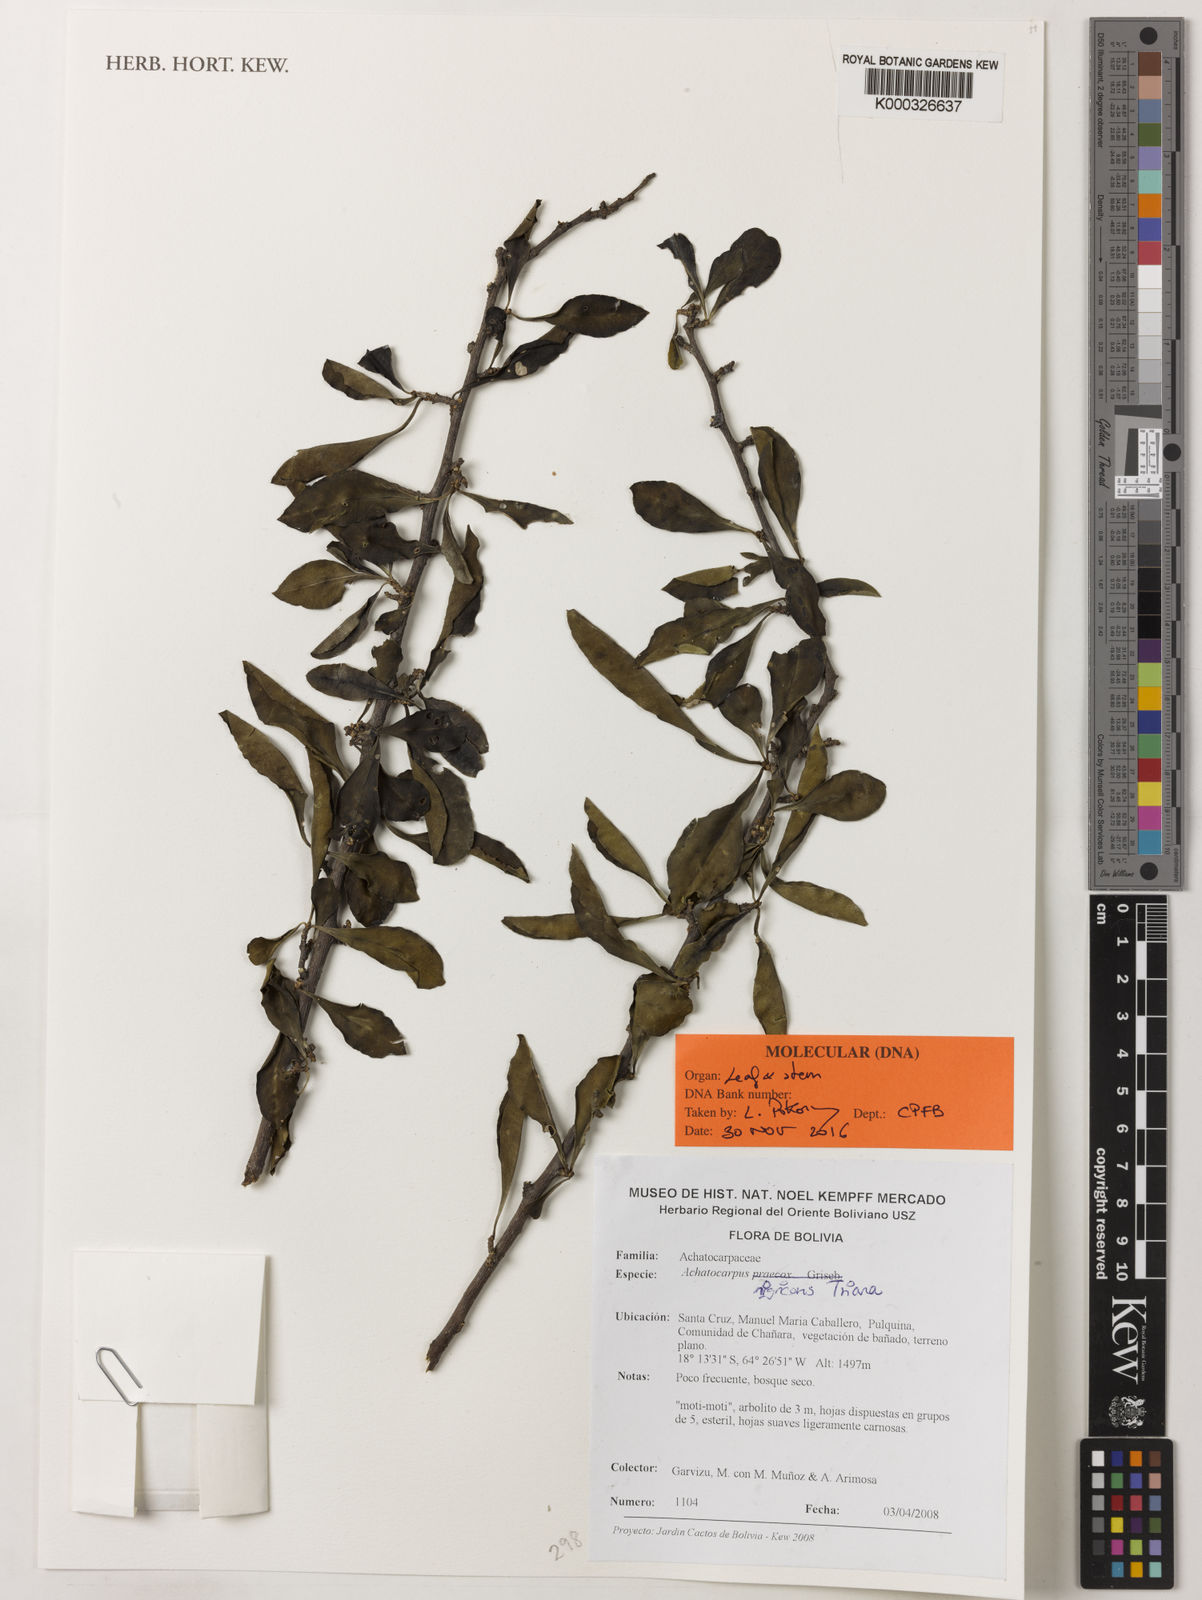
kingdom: Plantae
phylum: Tracheophyta
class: Magnoliopsida
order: Caryophyllales
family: Achatocarpaceae
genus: Achatocarpus
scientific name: Achatocarpus nigricans
